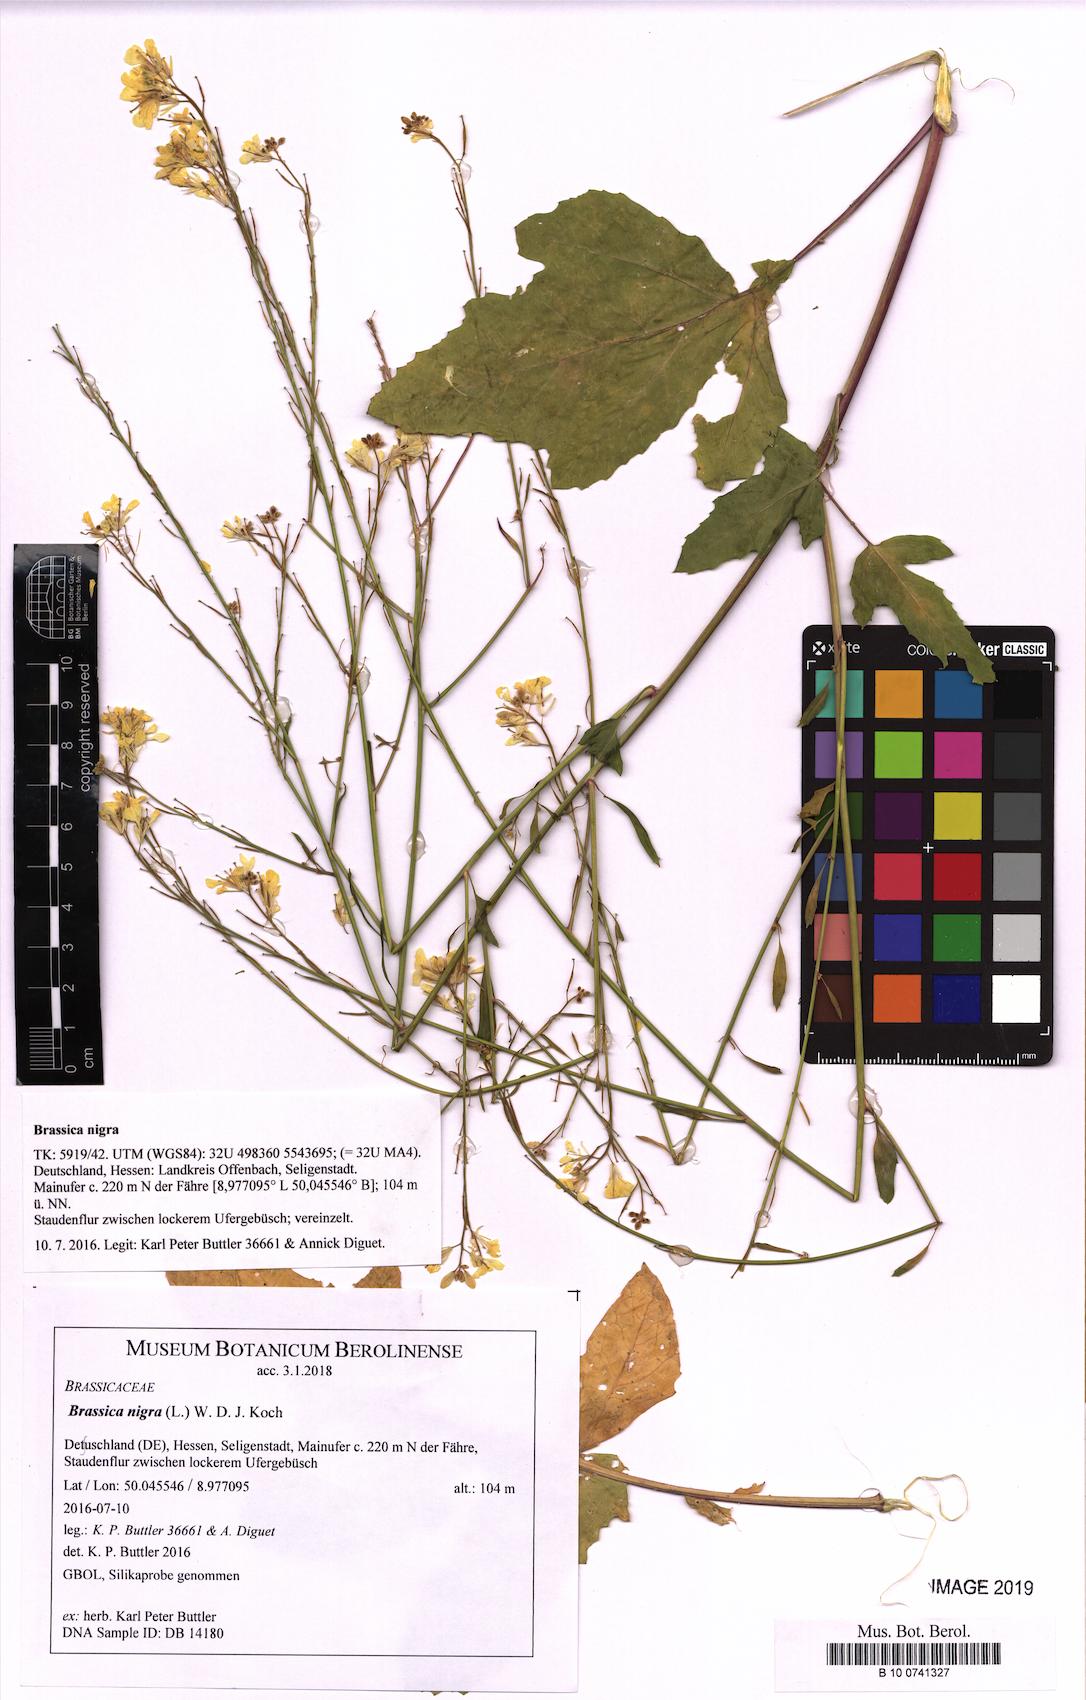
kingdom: Plantae
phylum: Tracheophyta
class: Magnoliopsida
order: Brassicales
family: Brassicaceae
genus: Brassica
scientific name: Brassica nigra
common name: Black mustard
